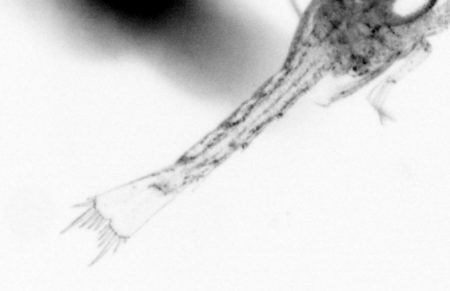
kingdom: Animalia
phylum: Chaetognatha
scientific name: Chaetognatha
